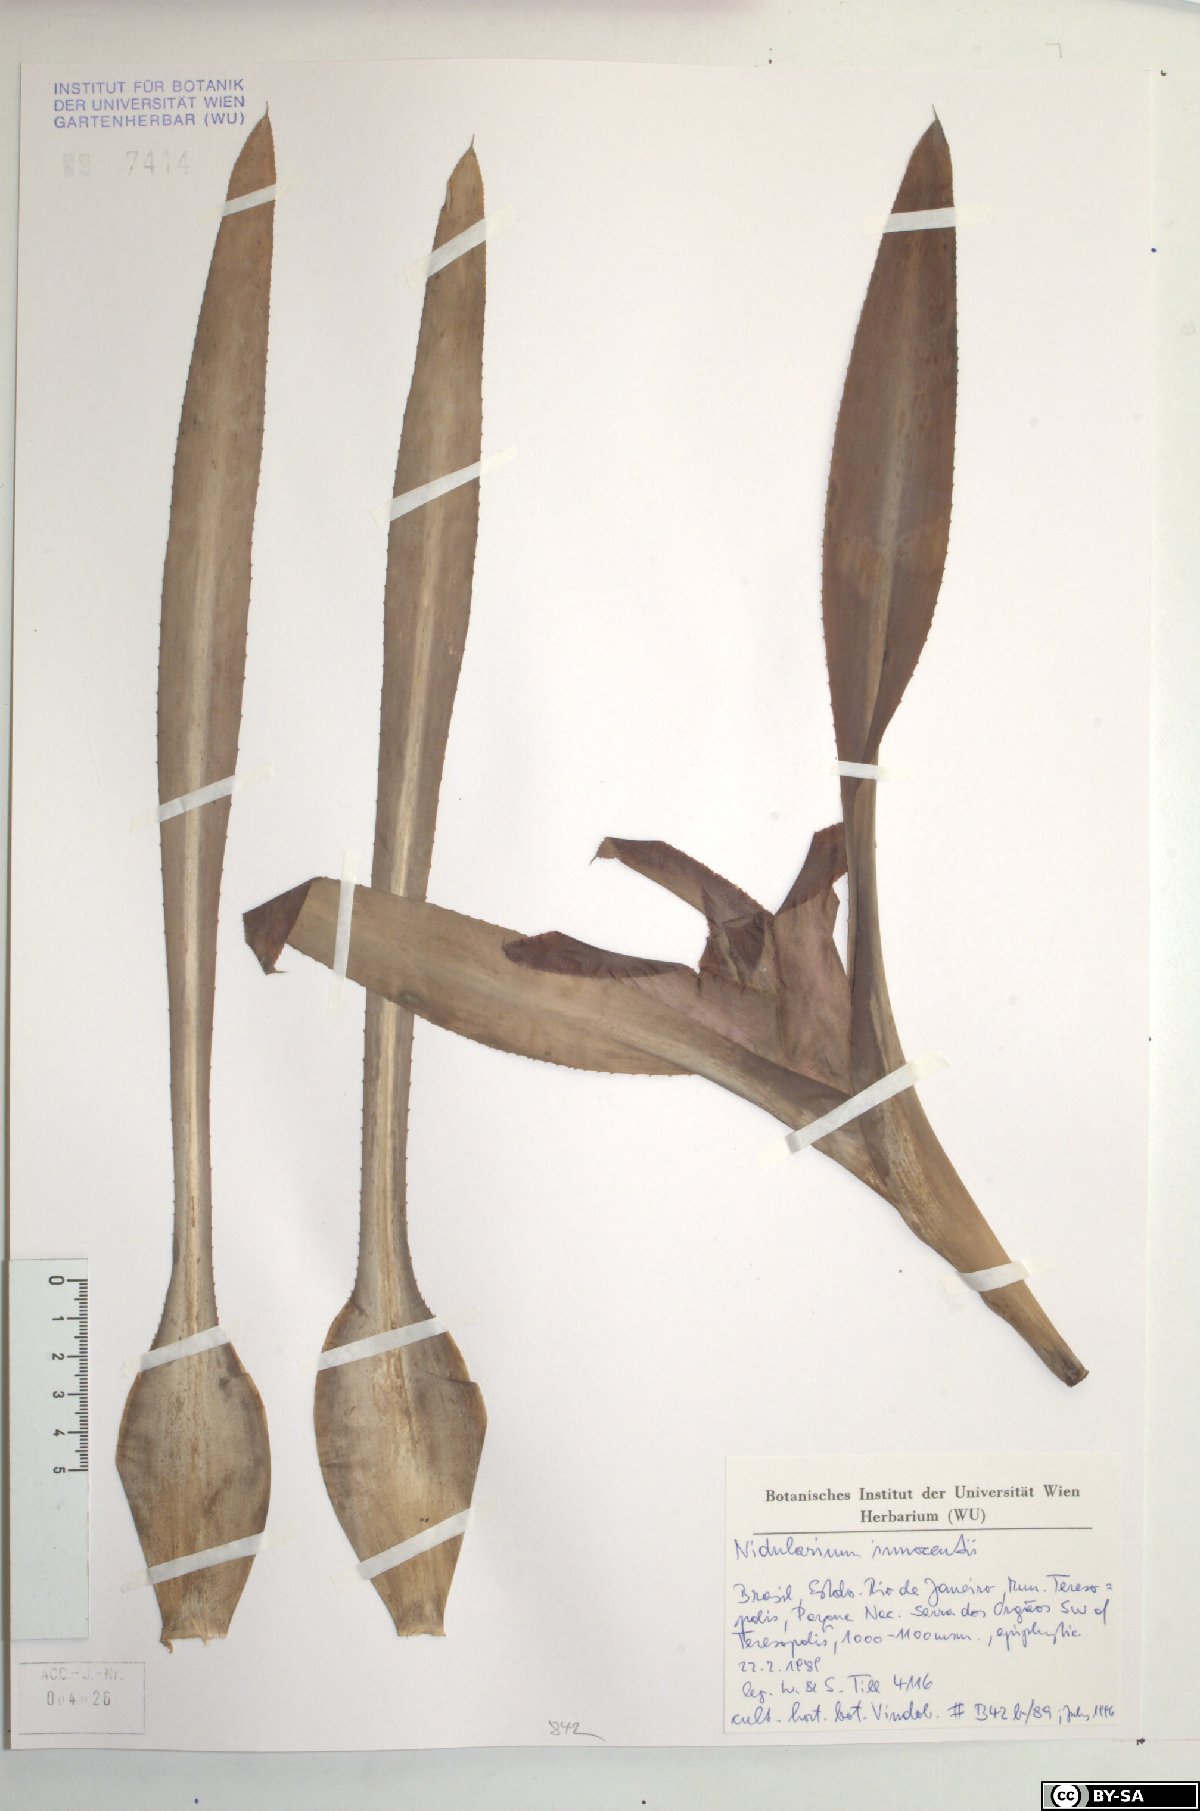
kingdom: Plantae
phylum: Tracheophyta
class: Liliopsida
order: Poales
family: Bromeliaceae
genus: Nidularium
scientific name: Nidularium innocentii
